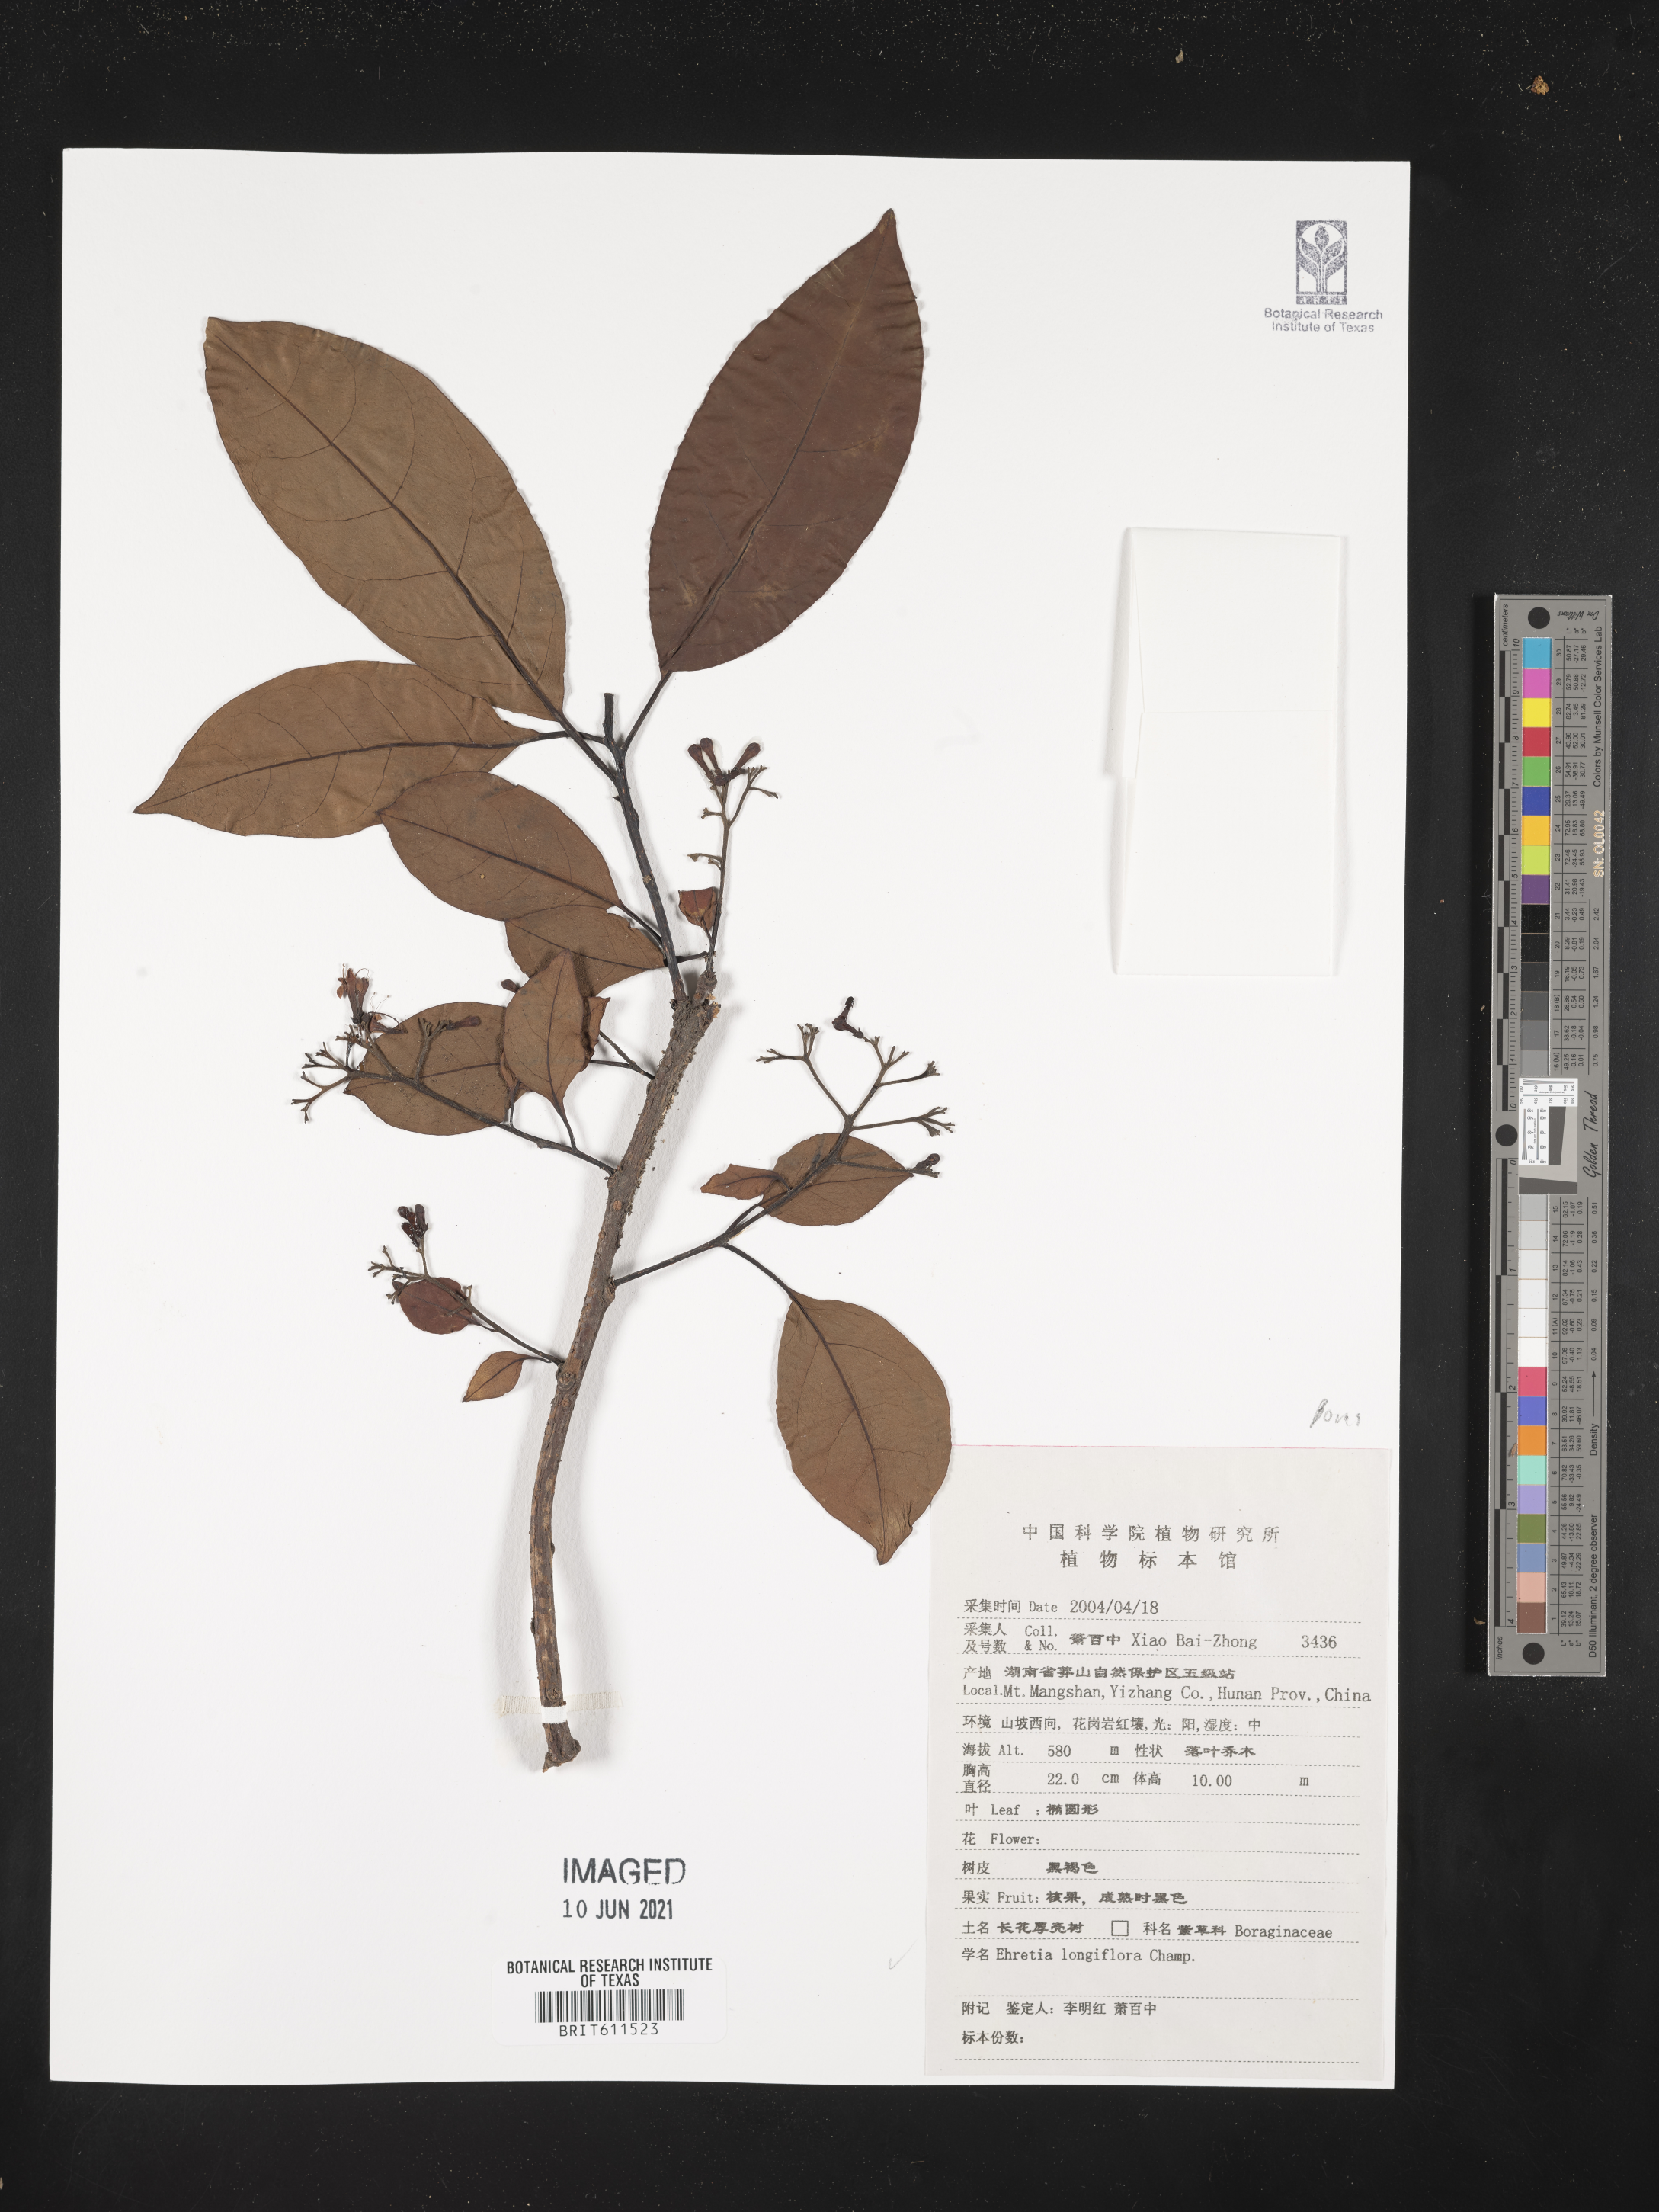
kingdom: Plantae
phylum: Tracheophyta
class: Magnoliopsida
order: Boraginales
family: Ehretiaceae
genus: Ehretia
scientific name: Ehretia longiflora
